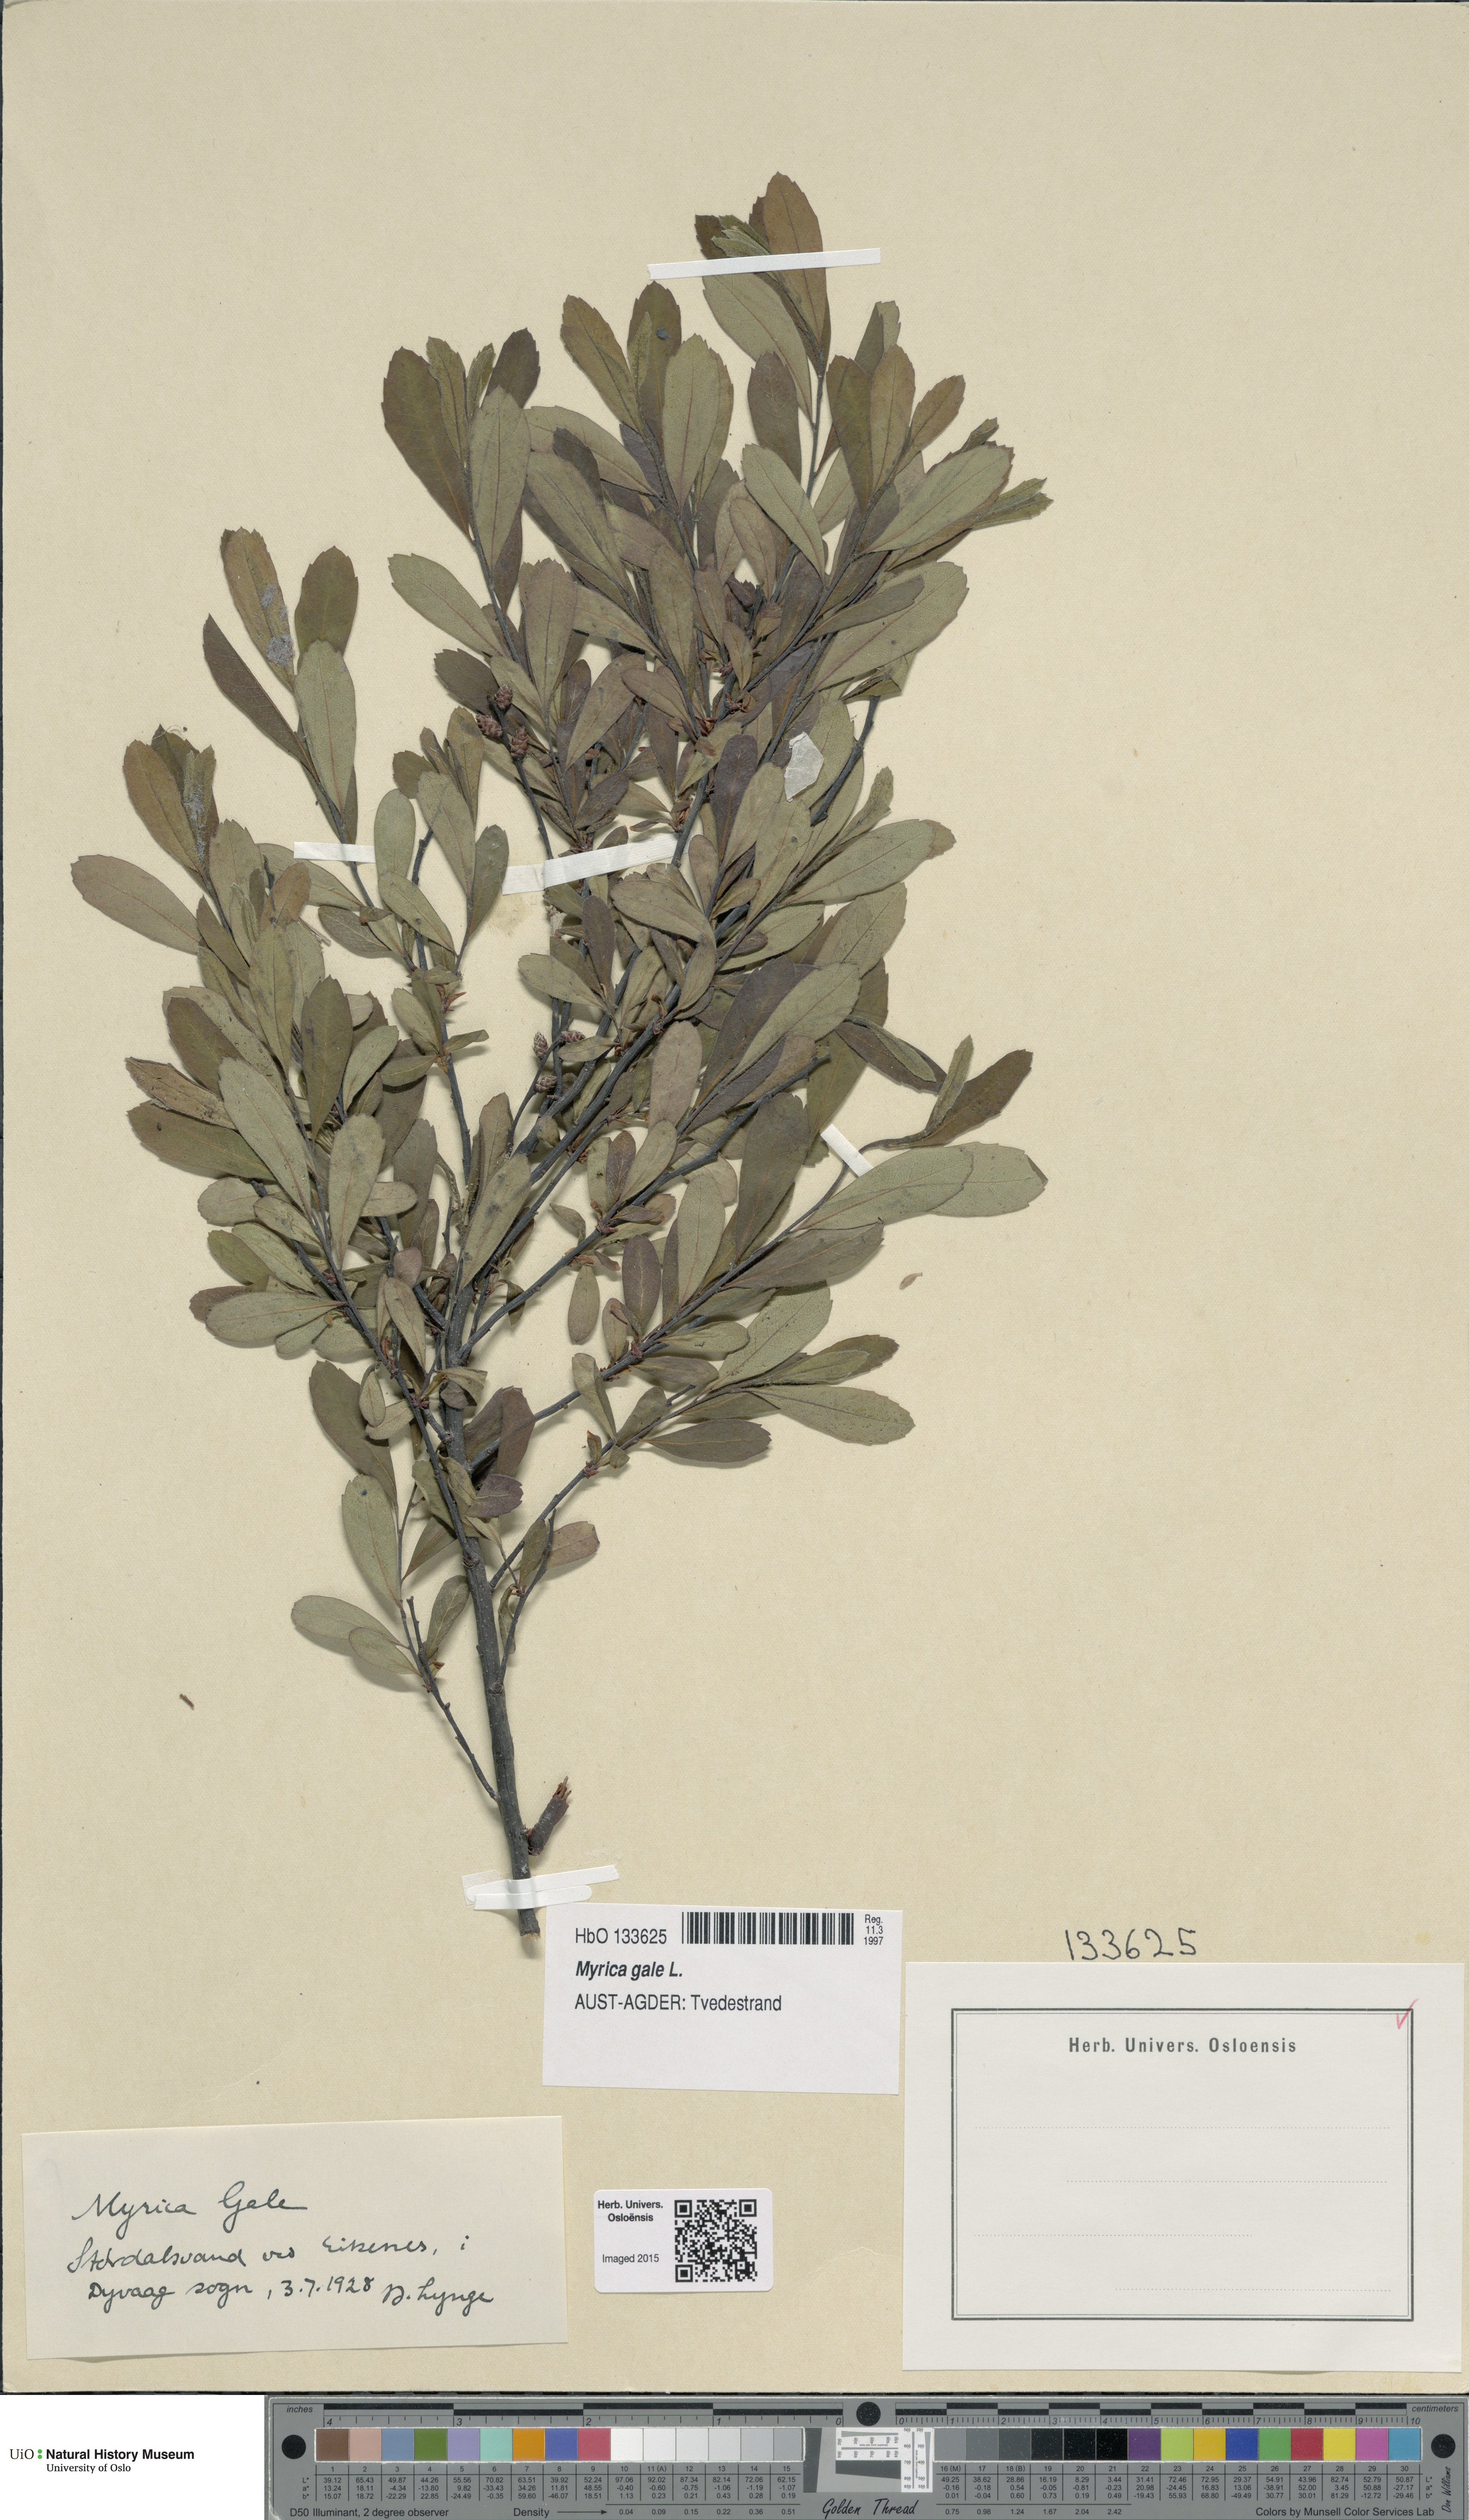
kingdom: Plantae
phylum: Tracheophyta
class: Magnoliopsida
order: Fagales
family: Myricaceae
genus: Myrica
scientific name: Myrica gale
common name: Sweet gale
